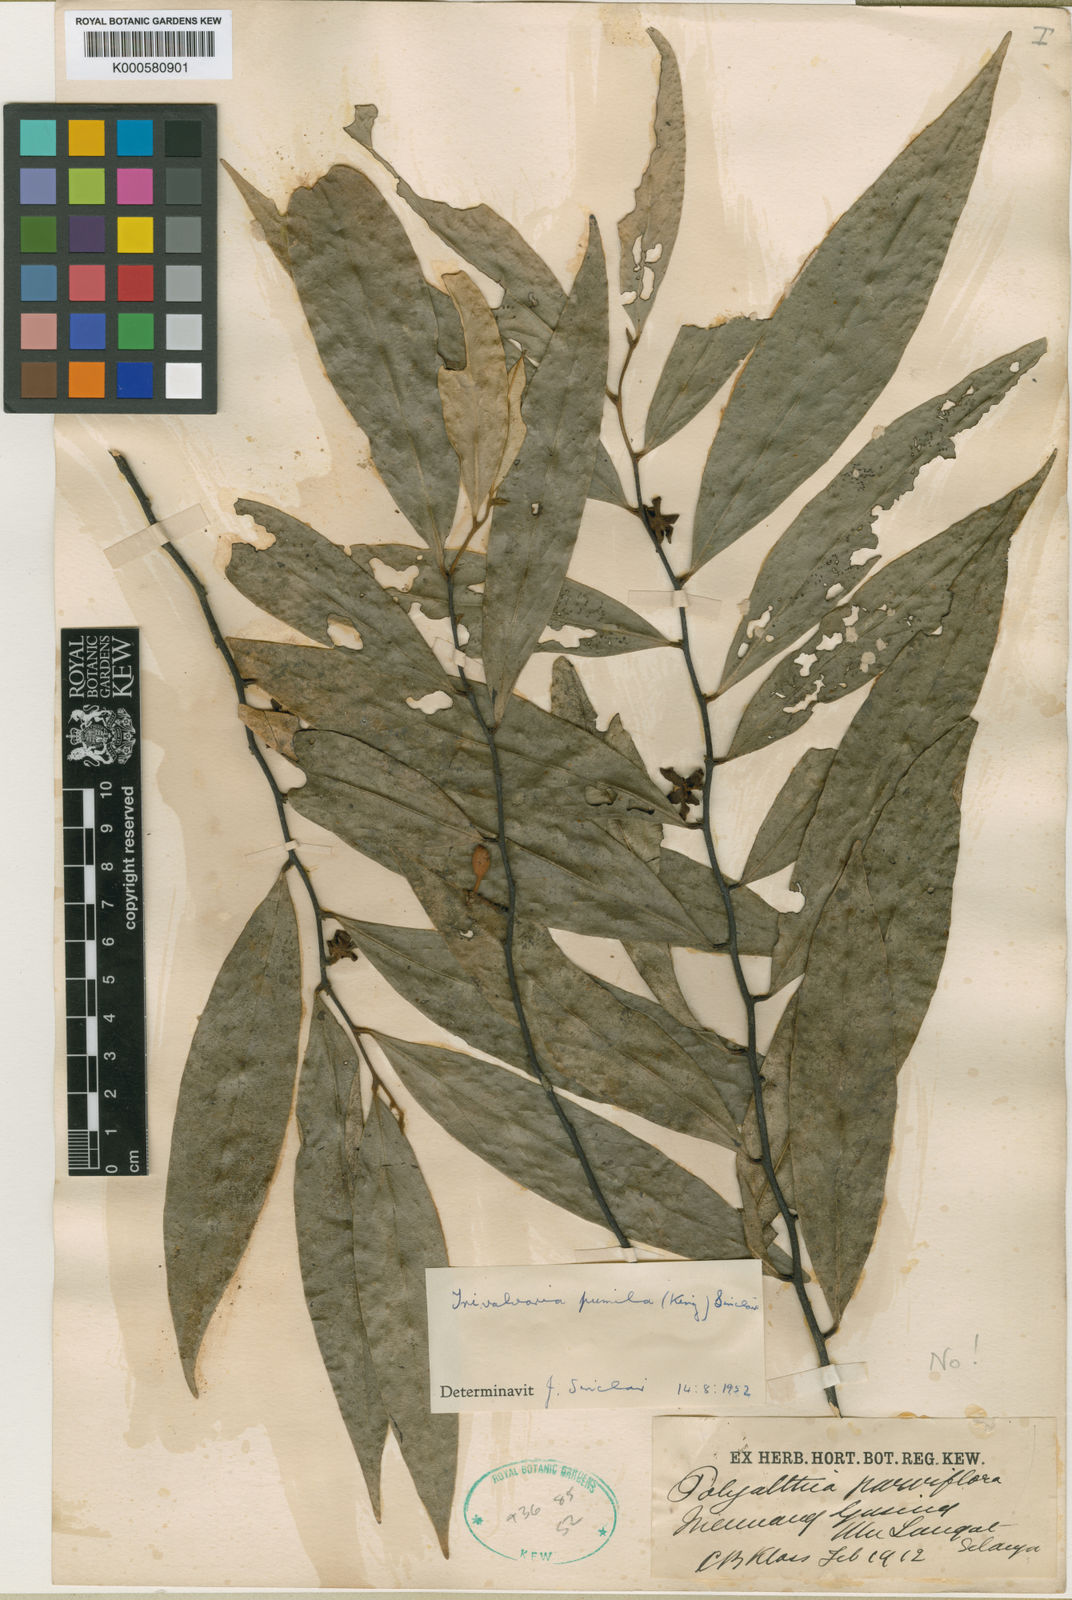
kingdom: Plantae
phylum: Tracheophyta
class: Magnoliopsida
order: Magnoliales
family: Annonaceae
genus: Trivalvaria
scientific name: Trivalvaria costata
